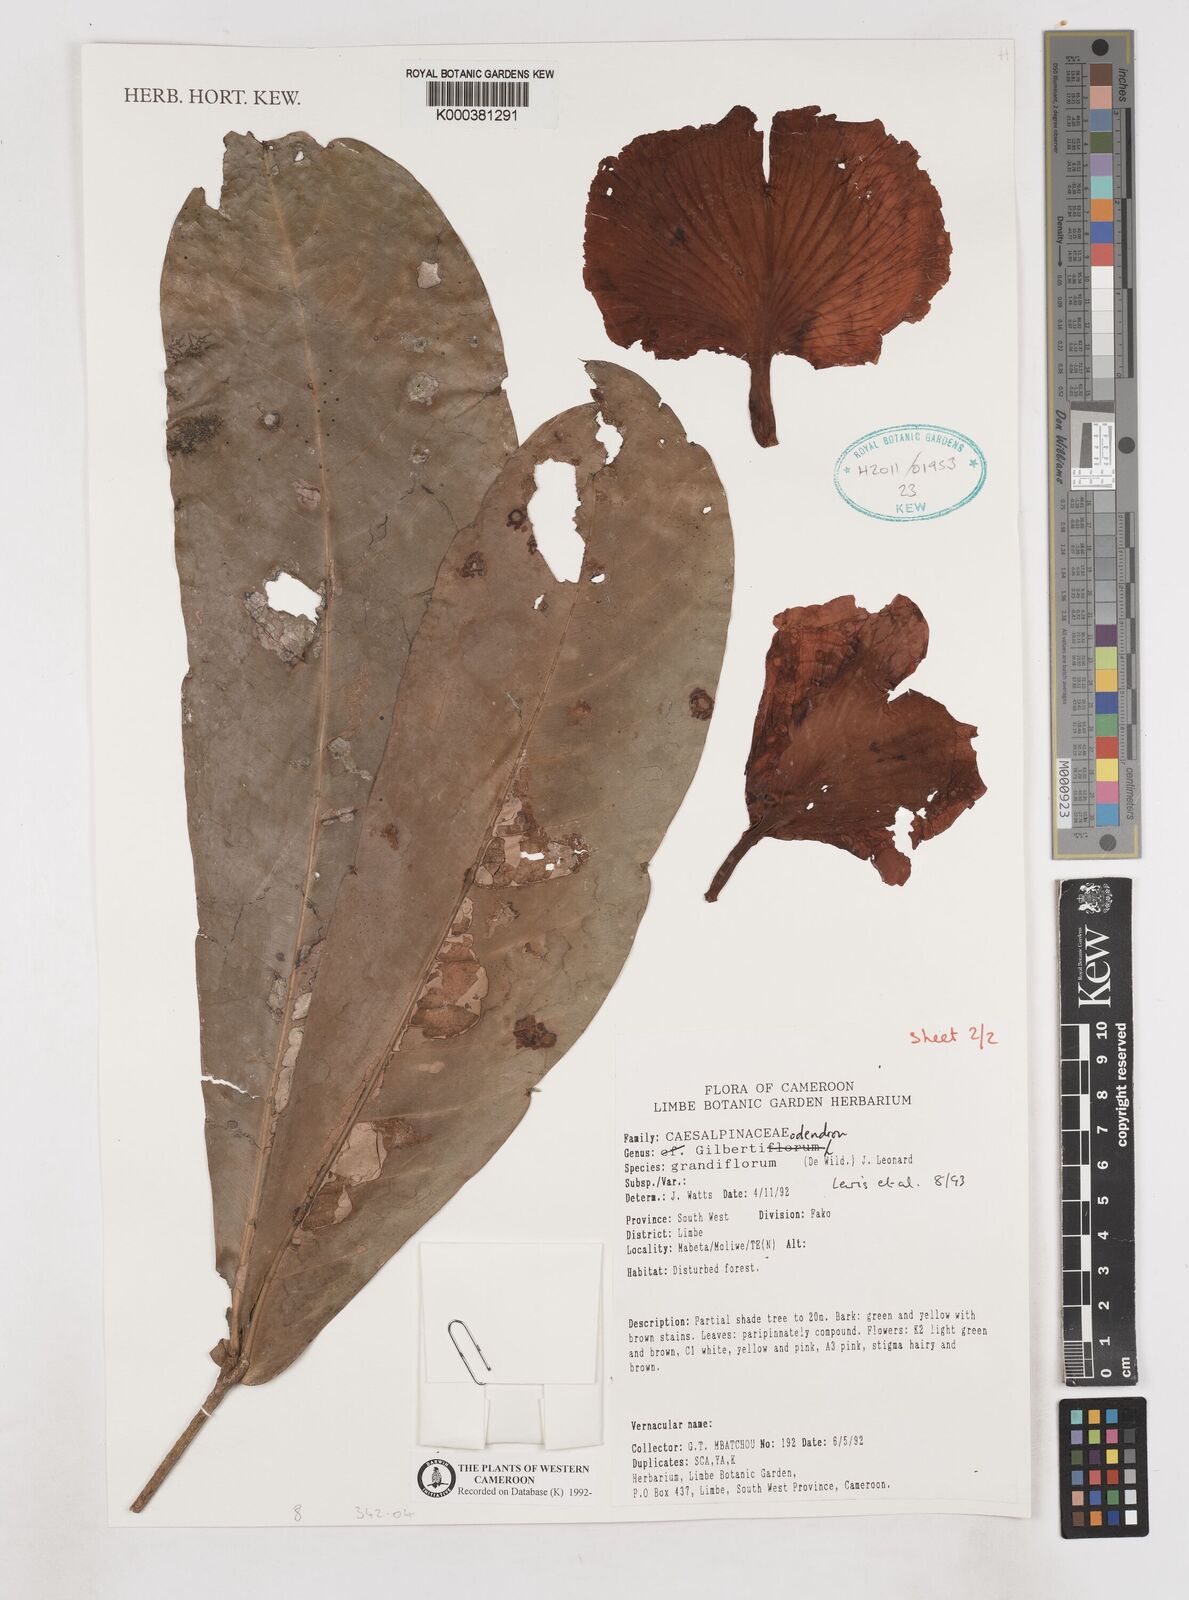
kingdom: Plantae
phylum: Tracheophyta
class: Magnoliopsida
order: Fabales
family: Fabaceae
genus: Gilbertiodendron
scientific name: Gilbertiodendron grandiflorum
